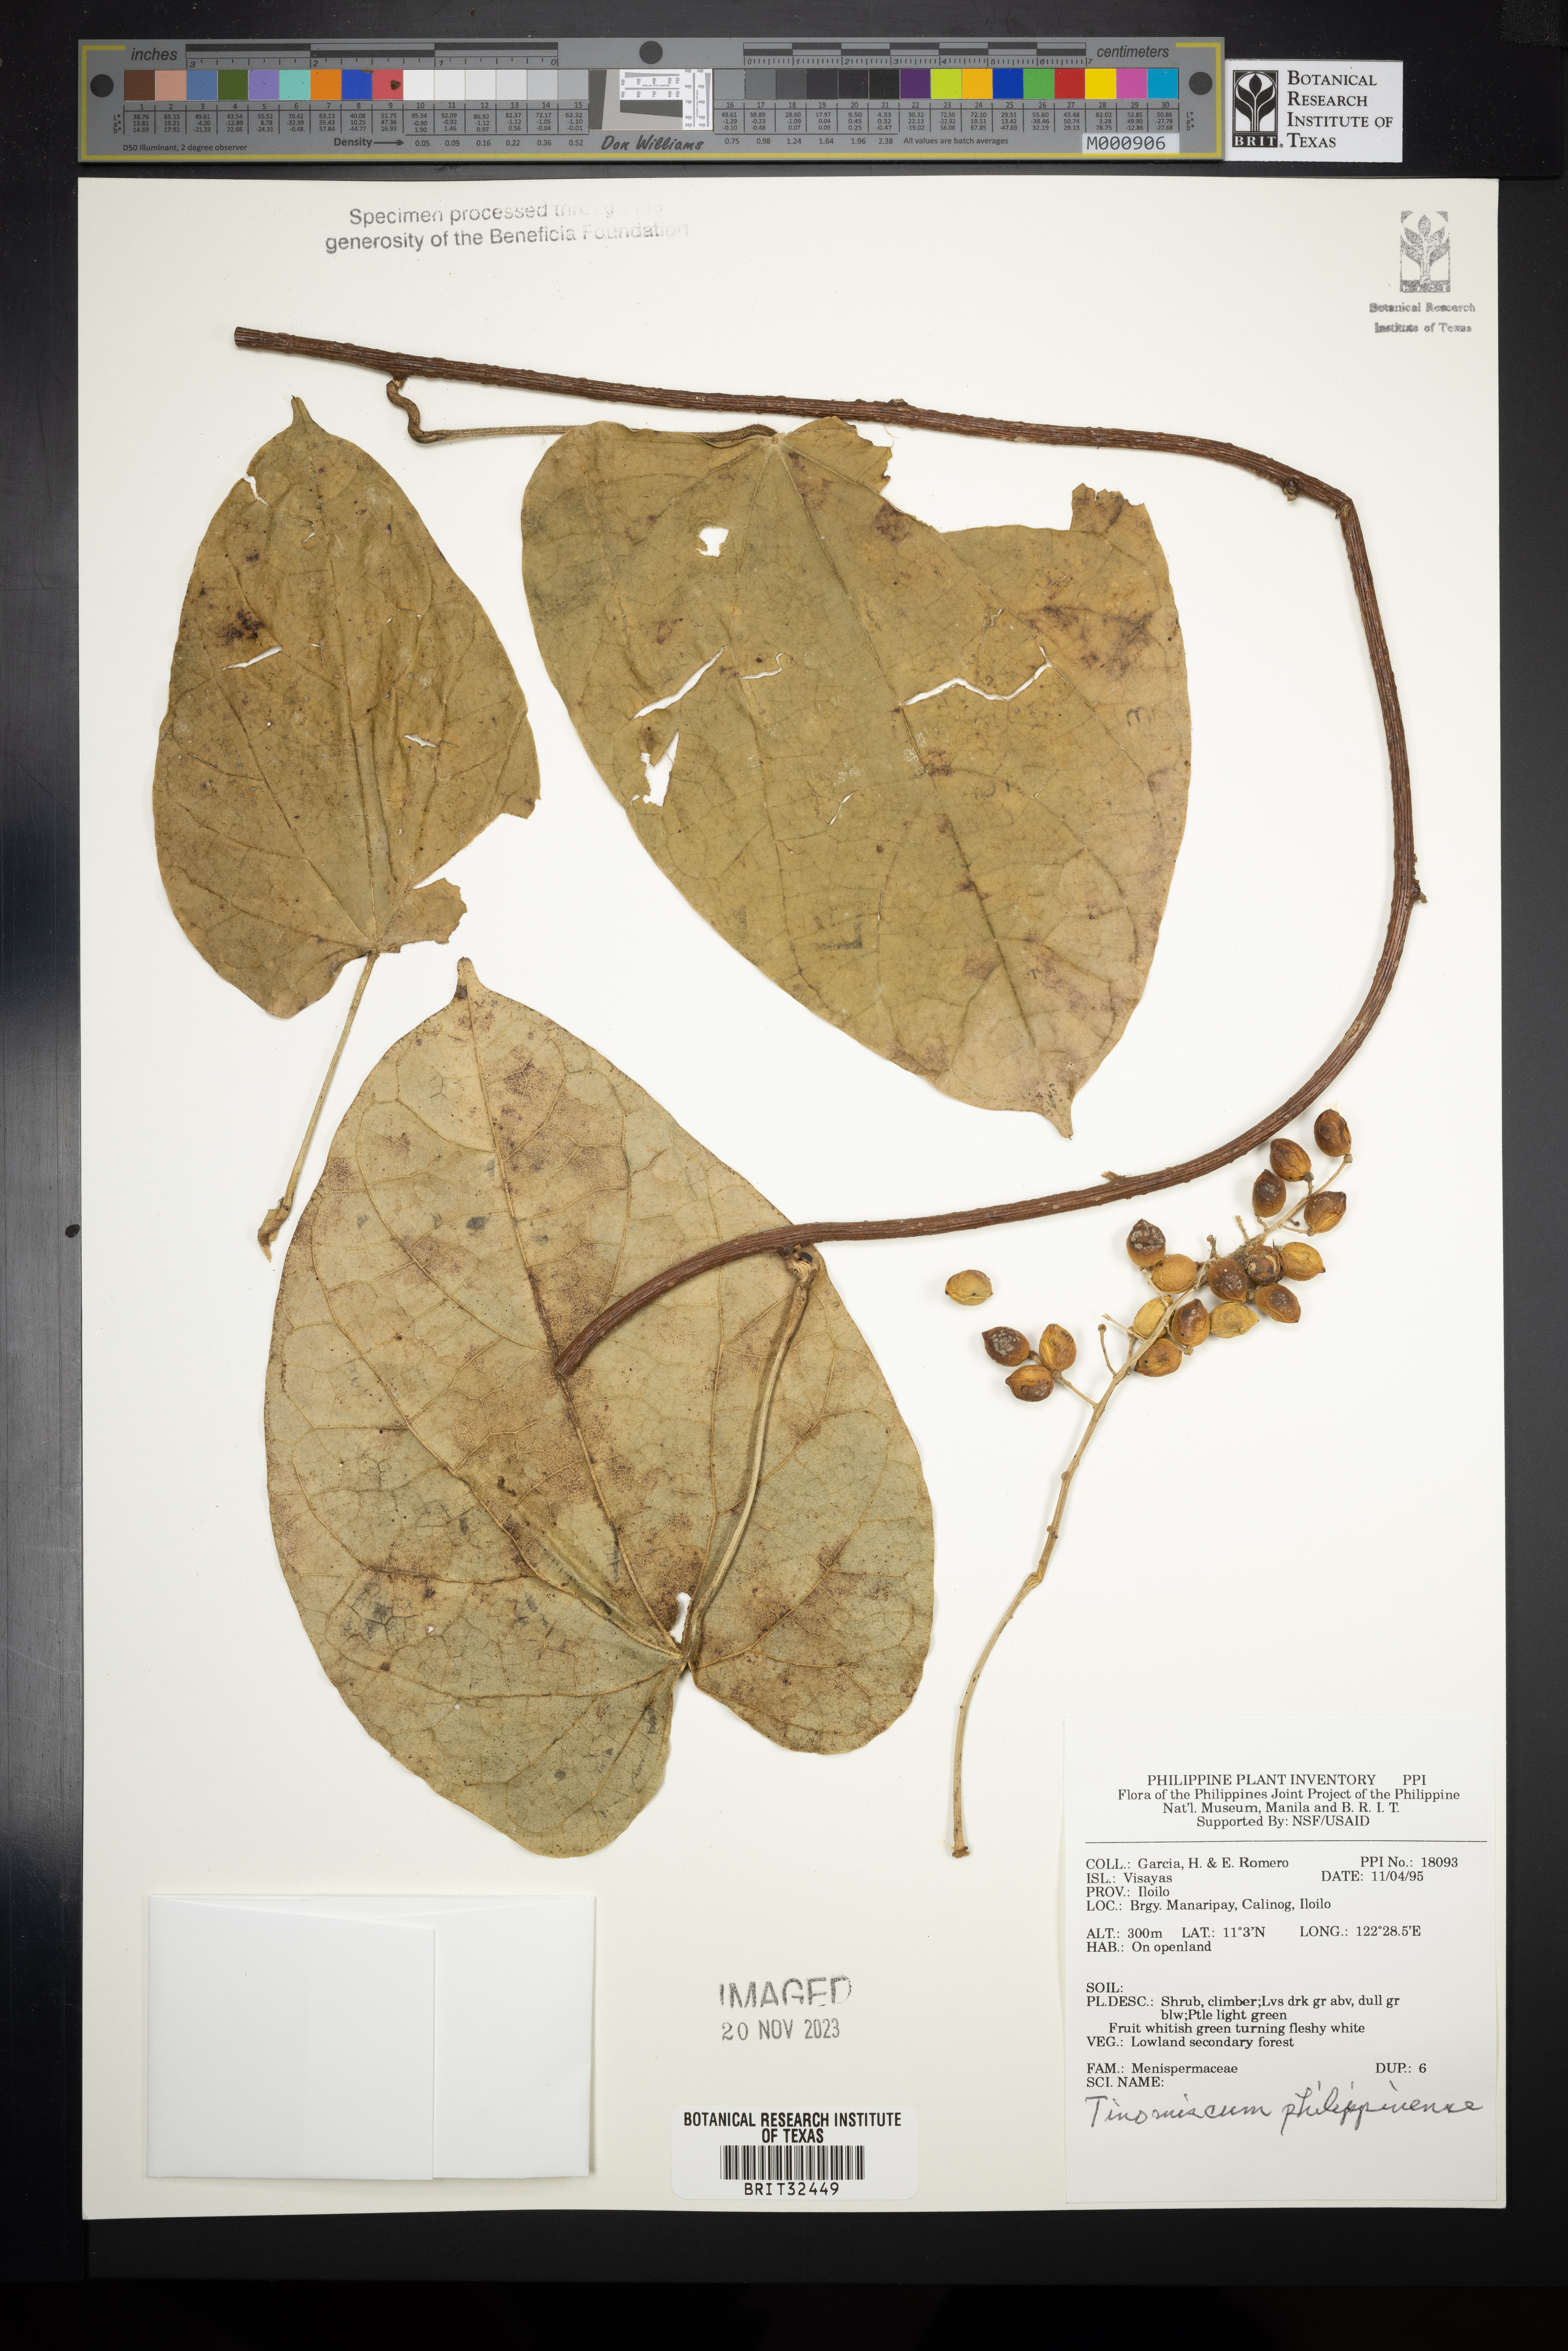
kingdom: Plantae
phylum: Tracheophyta
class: Magnoliopsida
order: Ranunculales
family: Menispermaceae
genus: Tinomiscium
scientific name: Tinomiscium petiolare
